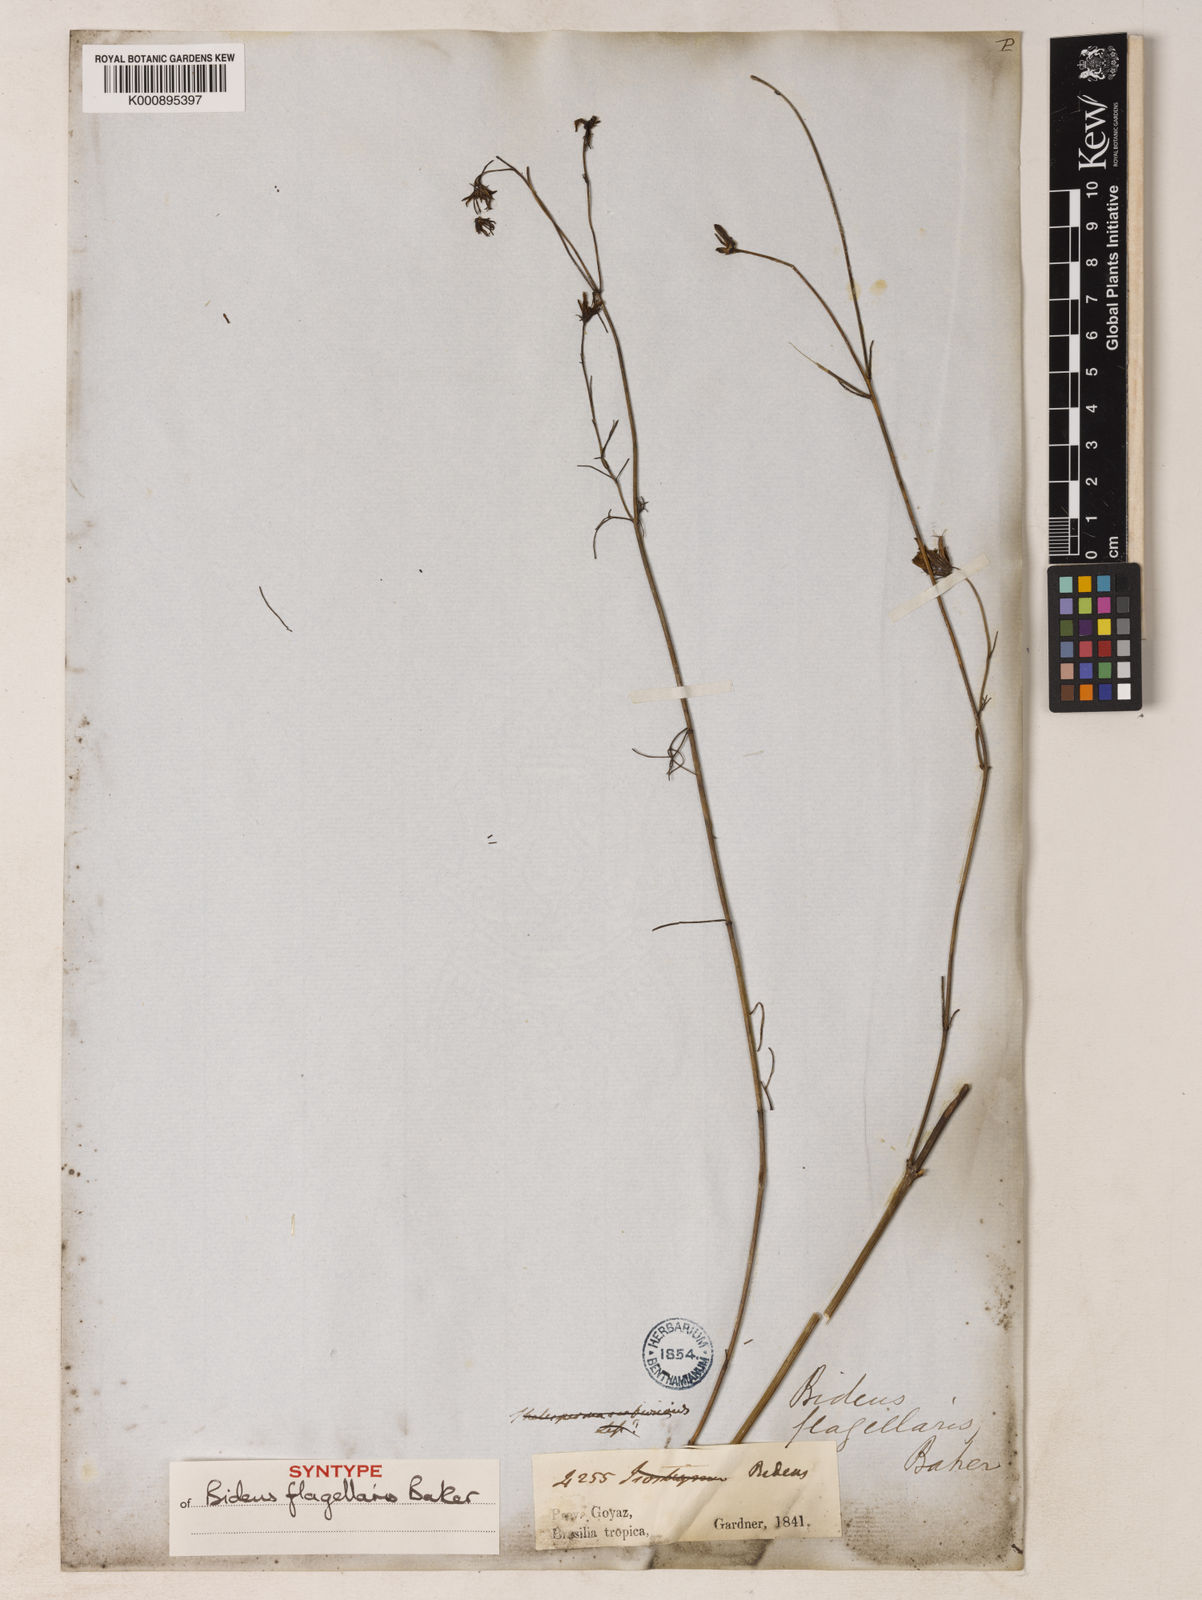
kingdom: Plantae
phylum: Tracheophyta
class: Magnoliopsida
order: Asterales
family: Asteraceae
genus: Bidens
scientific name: Bidens flagellaris
